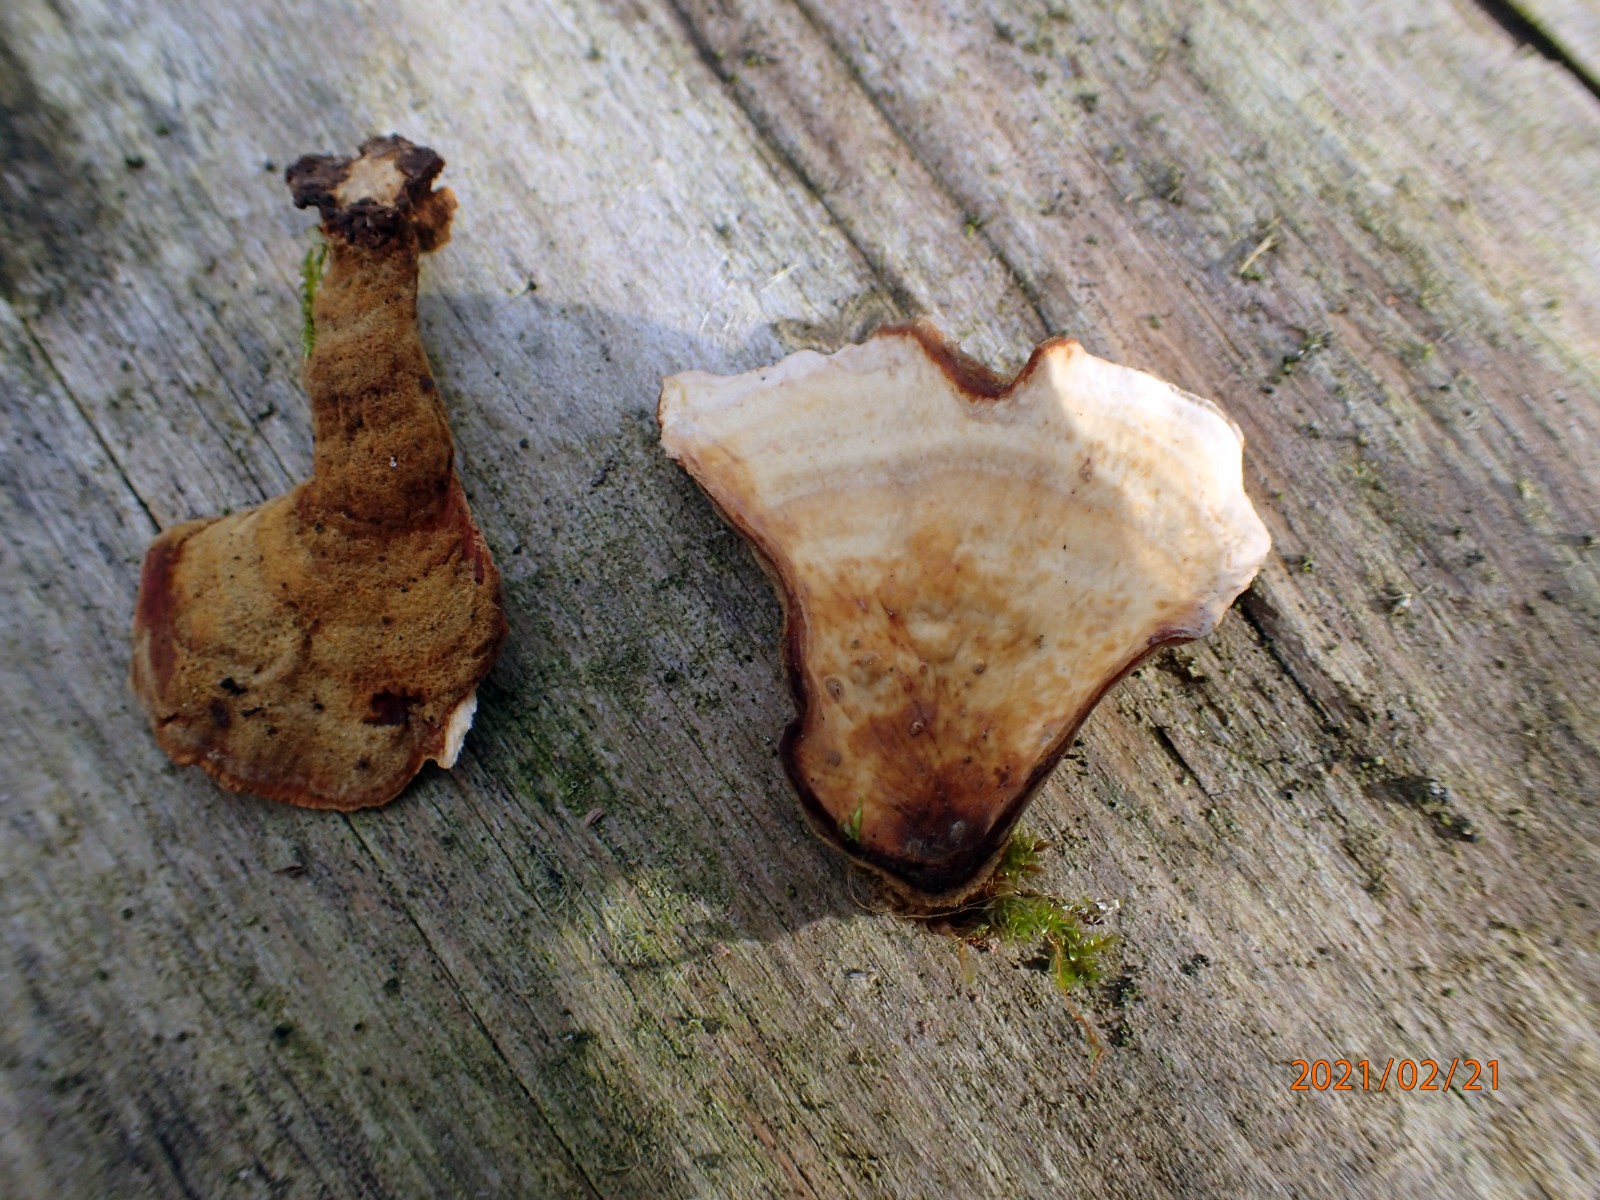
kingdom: Fungi
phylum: Basidiomycota
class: Agaricomycetes
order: Russulales
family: Stereaceae
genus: Stereum
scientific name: Stereum subtomentosum
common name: smuk lædersvamp
